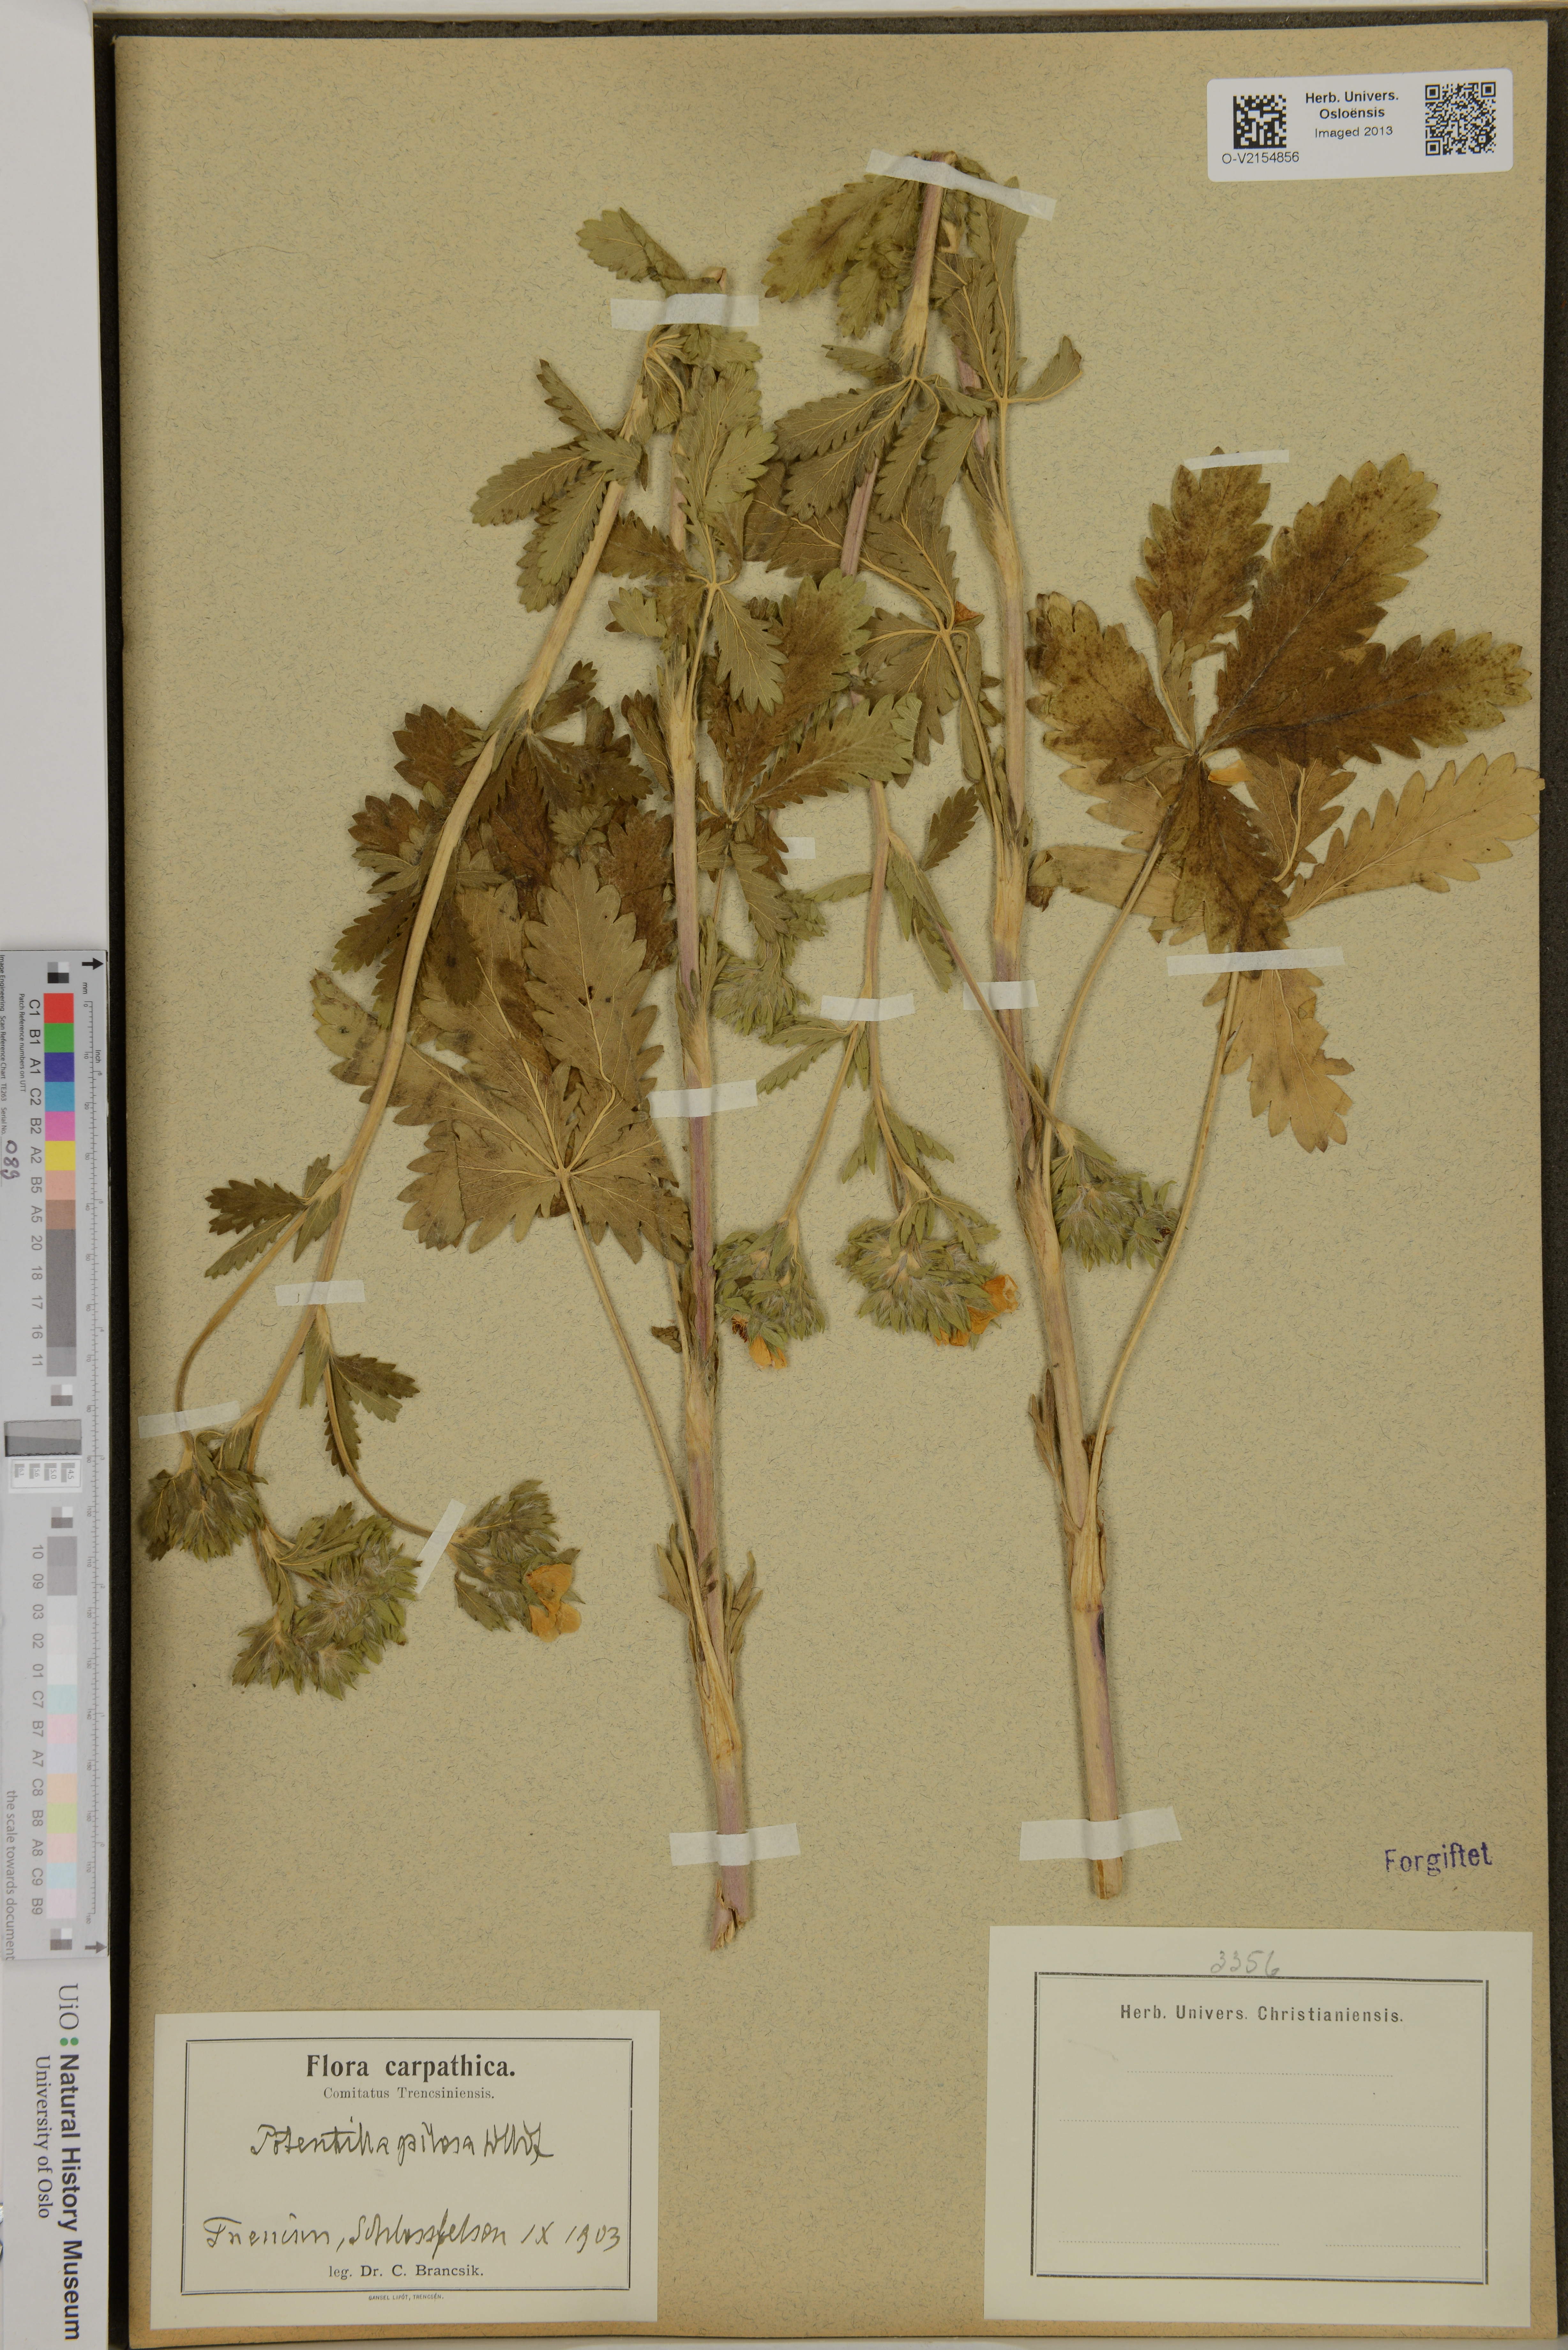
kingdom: Plantae
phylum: Tracheophyta
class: Magnoliopsida
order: Rosales
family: Rosaceae
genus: Potentilla
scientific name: Potentilla
